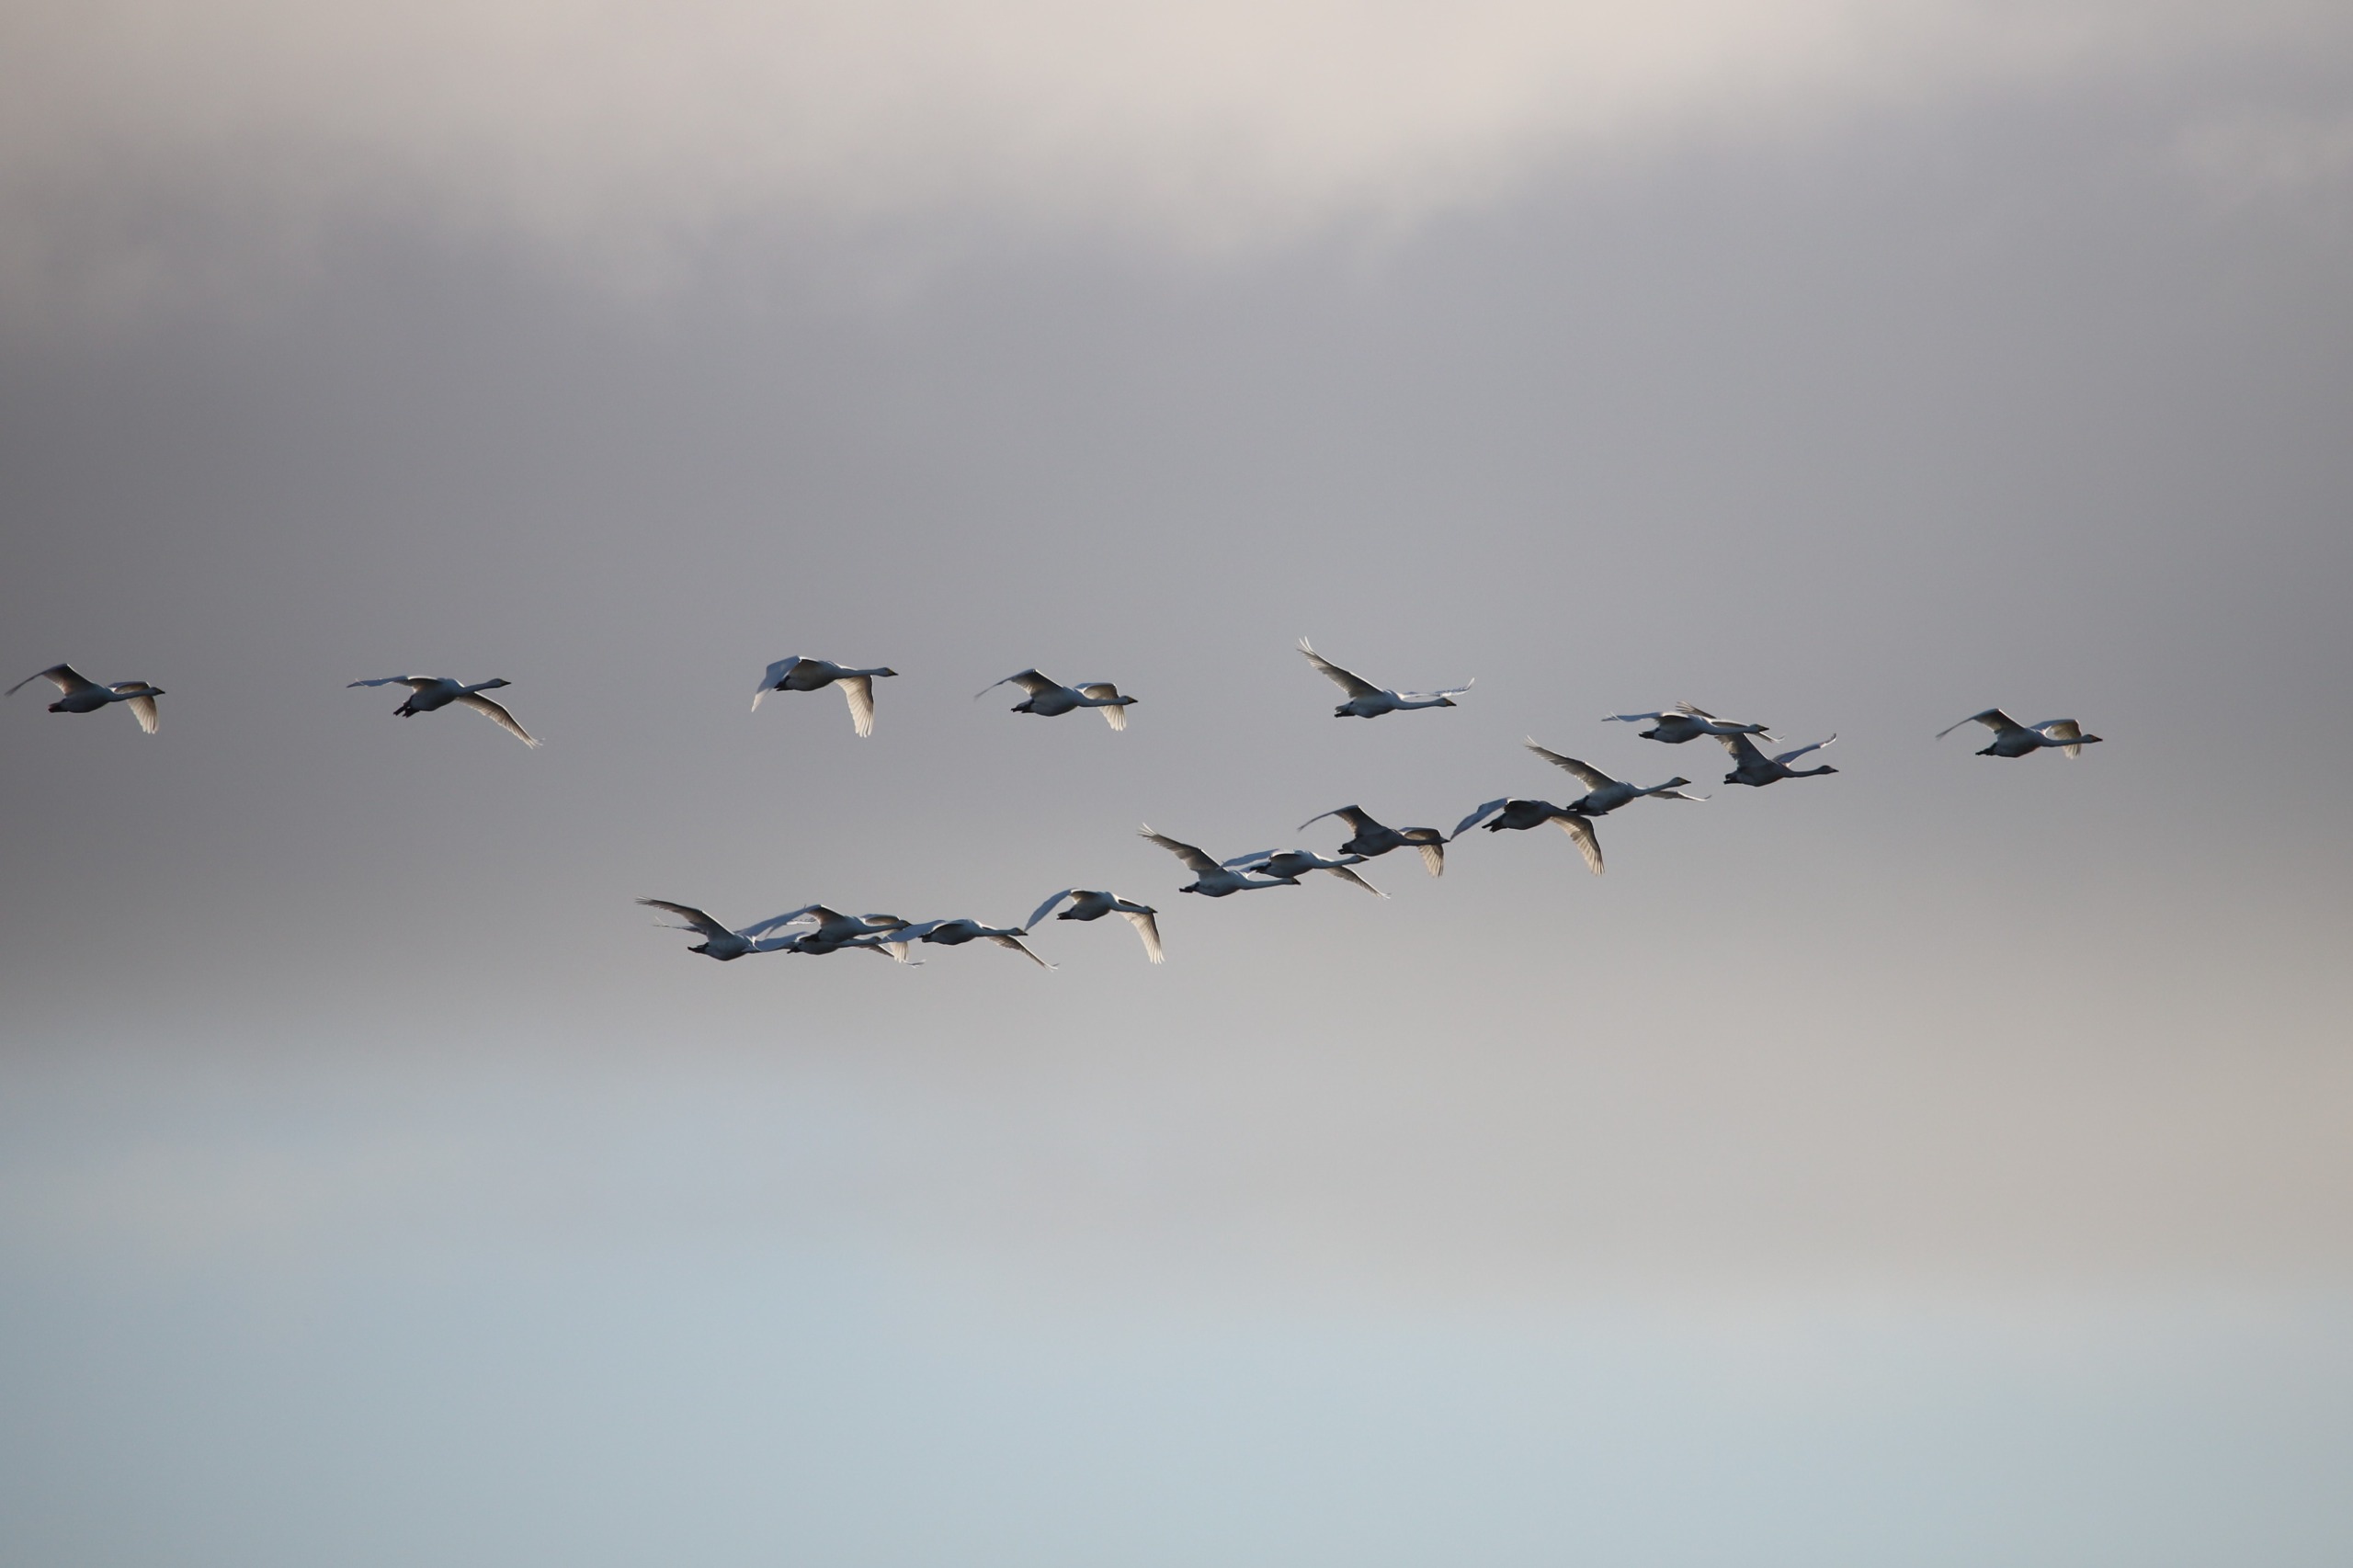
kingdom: Animalia
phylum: Chordata
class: Aves
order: Anseriformes
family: Anatidae
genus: Cygnus
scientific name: Cygnus cygnus
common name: Sangsvane
